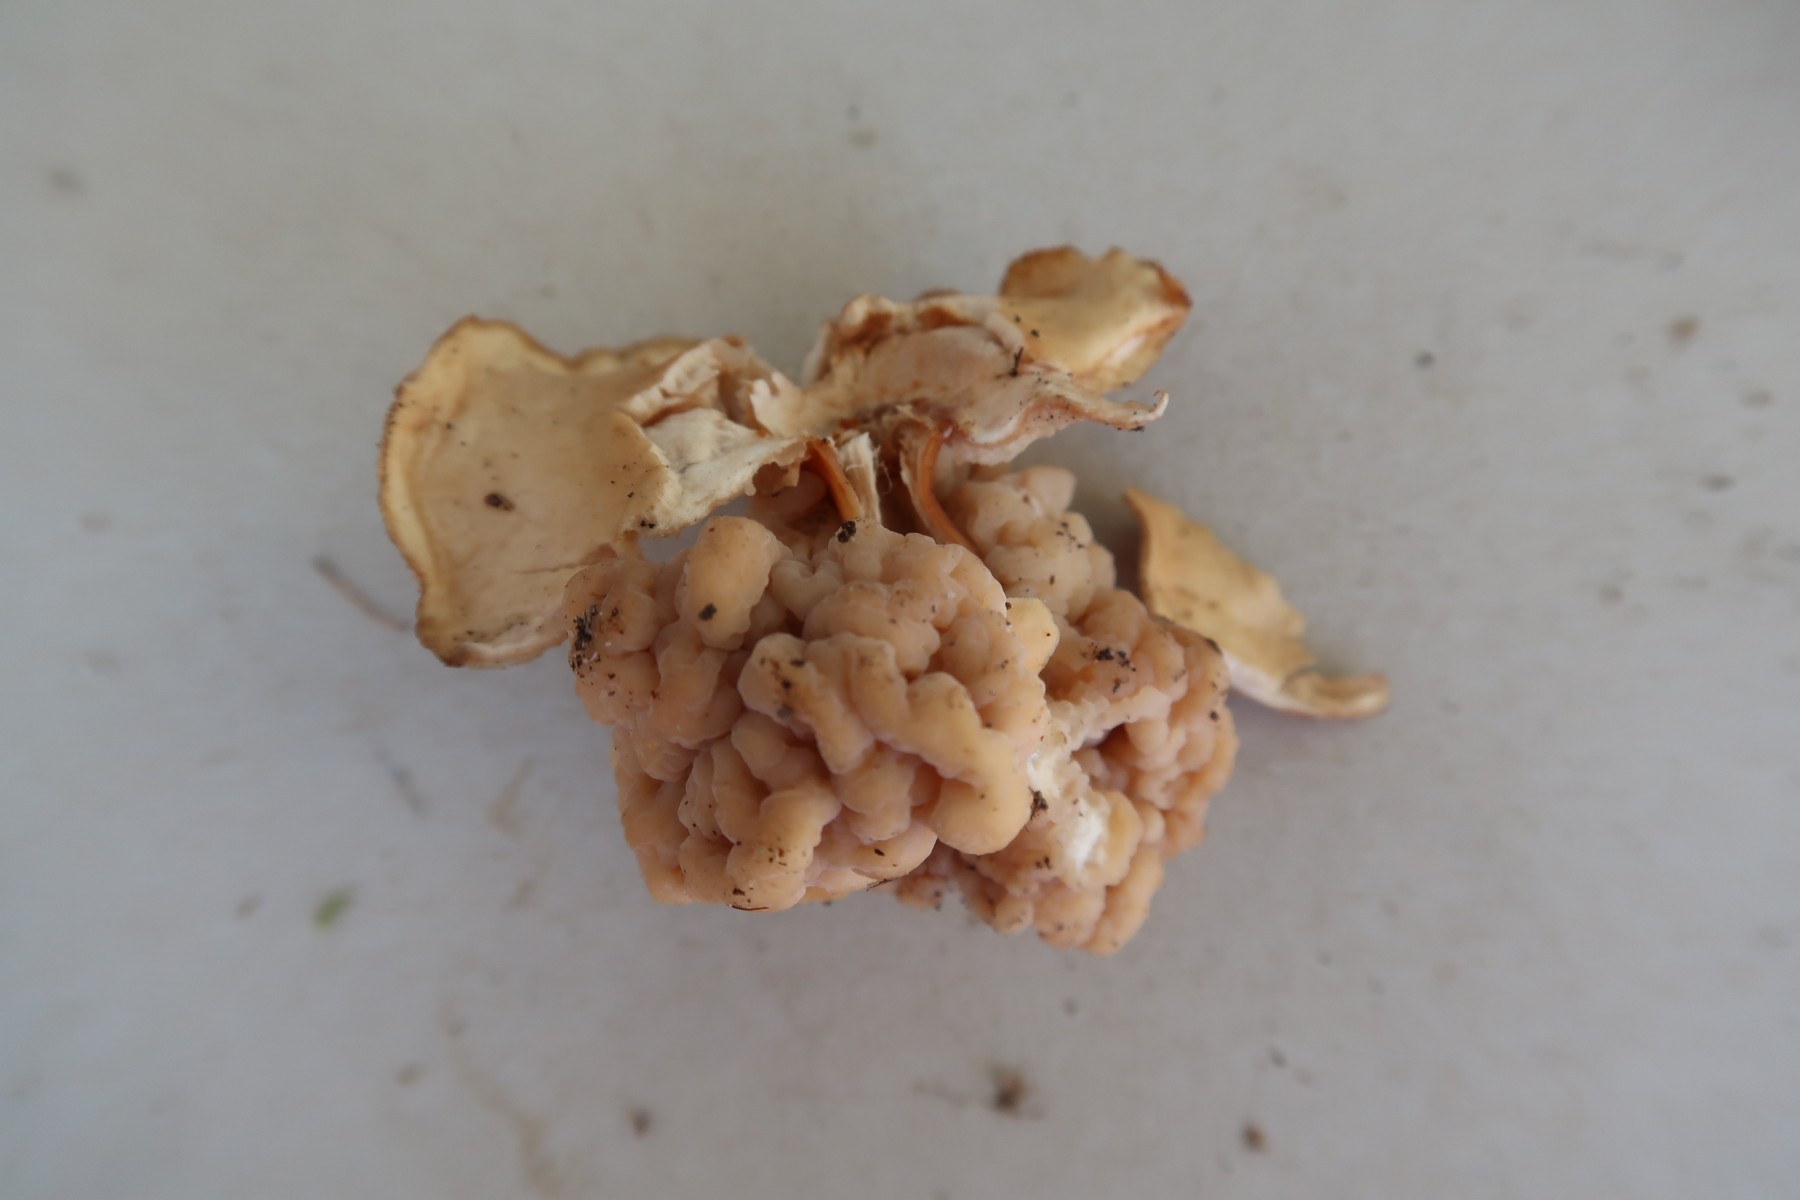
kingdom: Fungi
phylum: Basidiomycota
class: Tremellomycetes
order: Filobasidiales
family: Filobasidiaceae
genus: Syzygospora
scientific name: Syzygospora tumefaciens
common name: fladhatte-snyltehjerne
